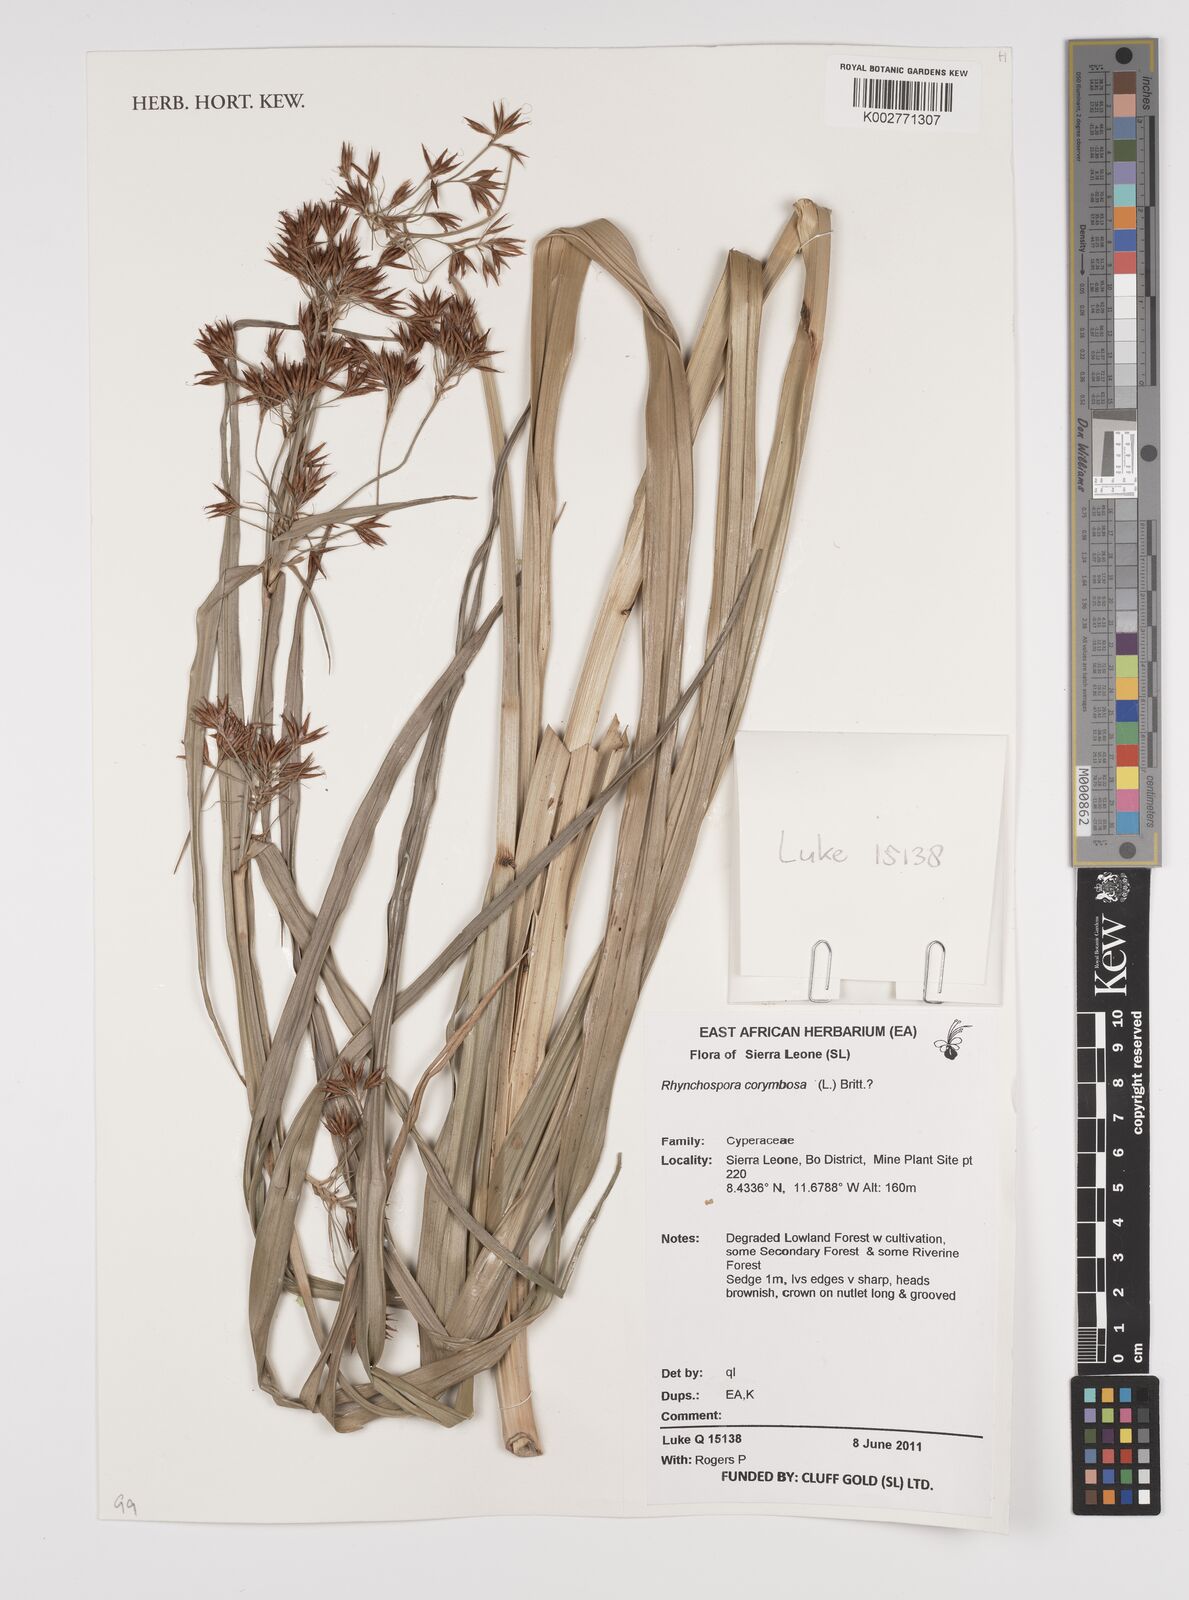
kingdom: Plantae
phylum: Tracheophyta
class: Liliopsida
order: Poales
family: Cyperaceae
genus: Rhynchospora
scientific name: Rhynchospora corymbosa
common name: Golden beak sedge
